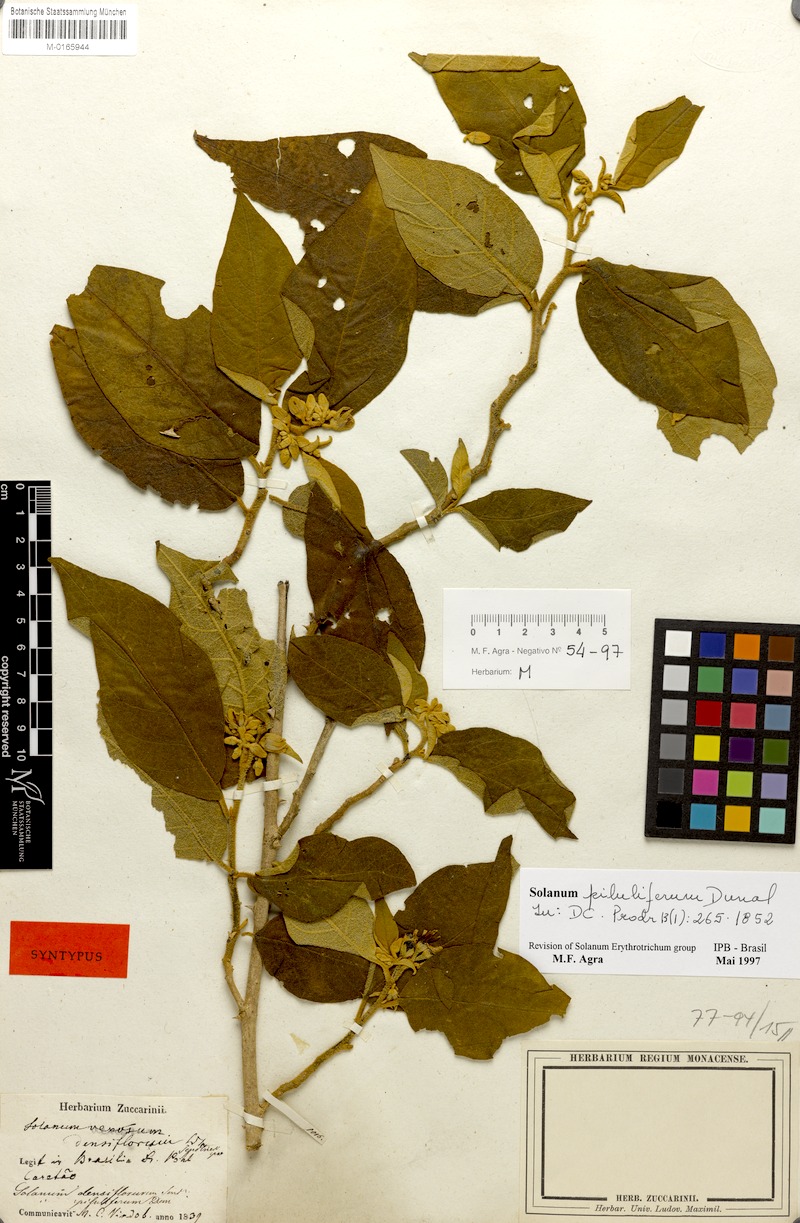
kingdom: Plantae
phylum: Tracheophyta
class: Magnoliopsida
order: Solanales
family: Solanaceae
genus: Solanum
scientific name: Solanum piluliferum
